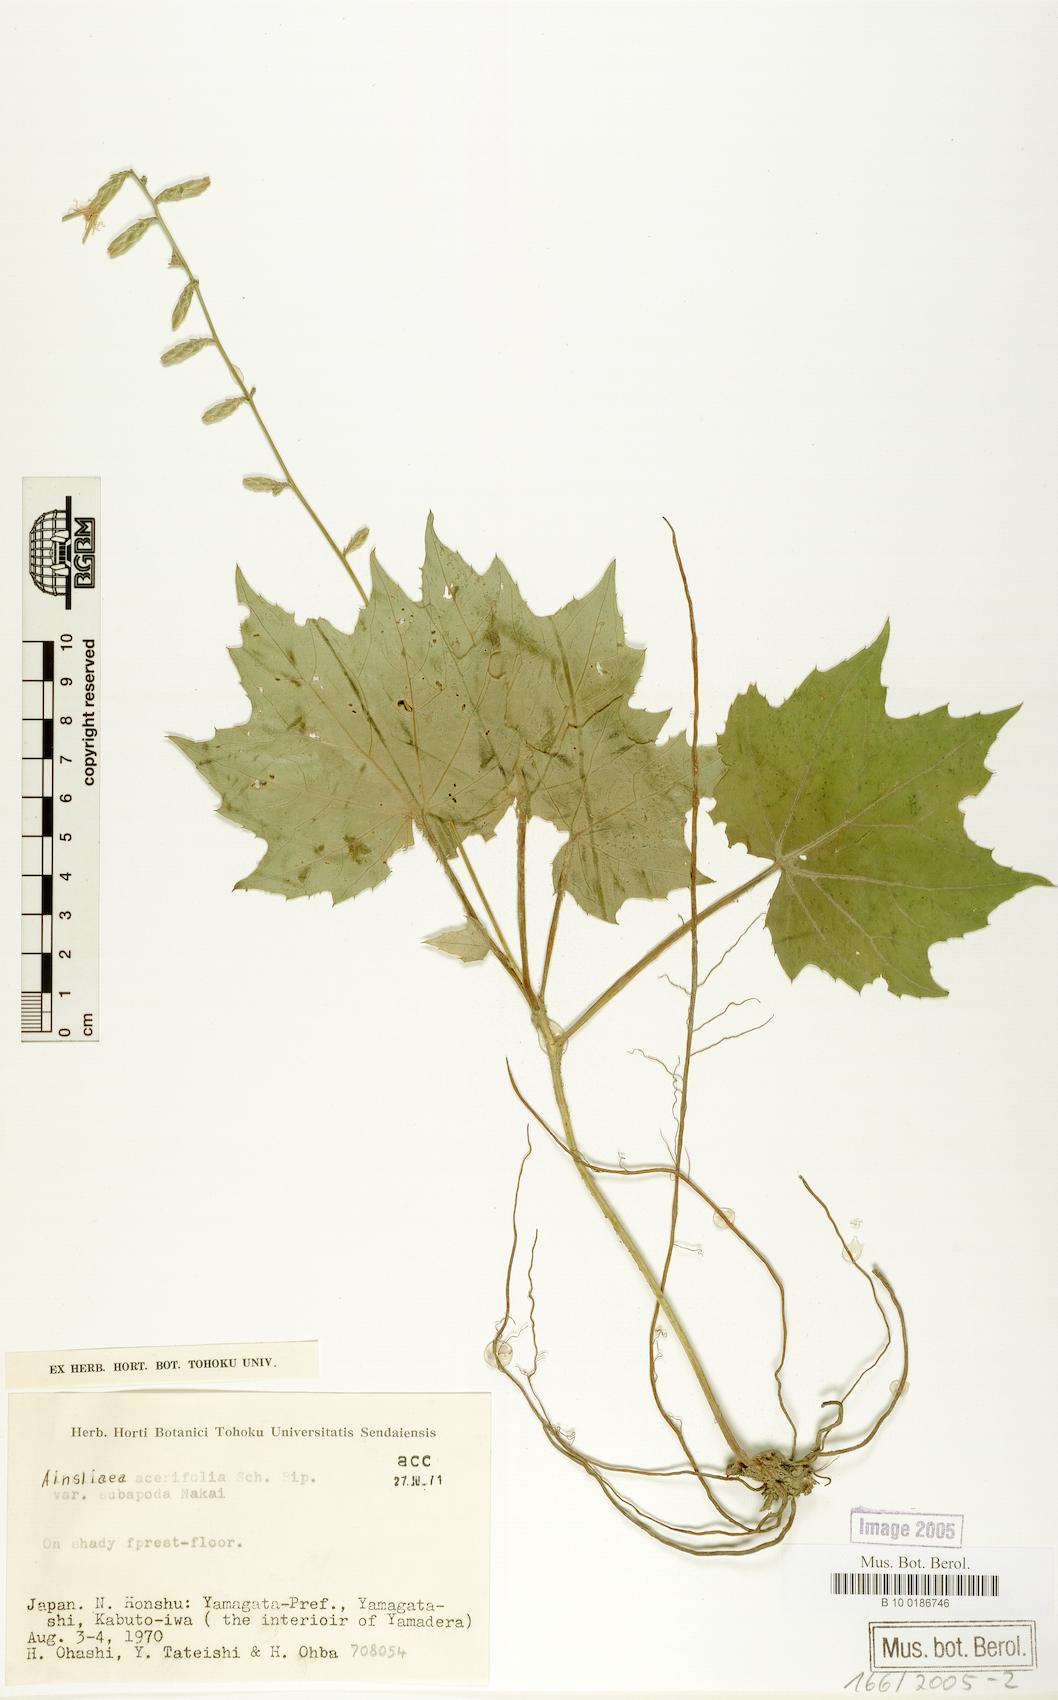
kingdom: Plantae
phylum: Tracheophyta
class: Magnoliopsida
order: Asterales
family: Asteraceae
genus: Ainsliaea
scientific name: Ainsliaea acerifolia
